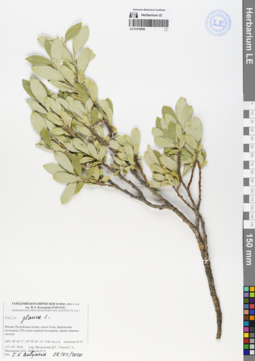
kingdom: Plantae
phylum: Tracheophyta
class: Magnoliopsida
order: Malpighiales
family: Salicaceae
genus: Salix
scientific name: Salix glauca
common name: Glaucous willow
